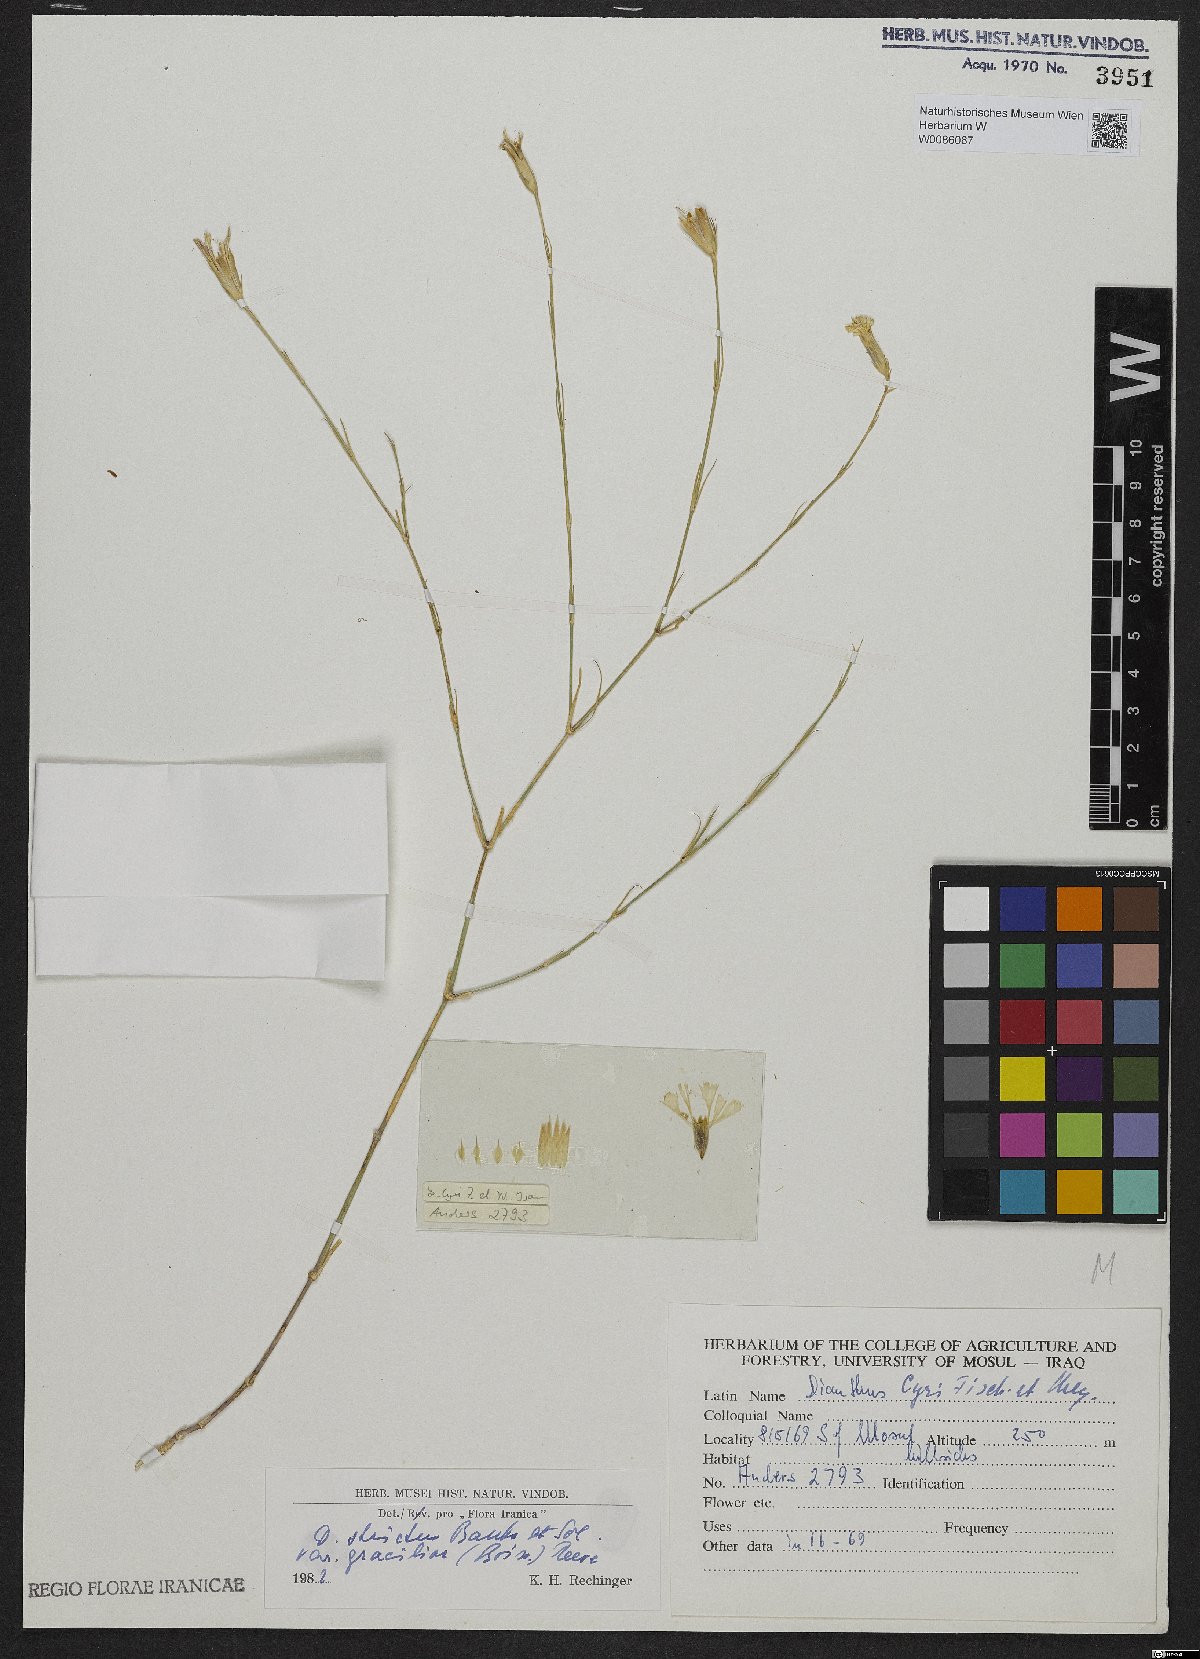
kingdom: Plantae
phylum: Tracheophyta
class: Magnoliopsida
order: Caryophyllales
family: Caryophyllaceae
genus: Dianthus
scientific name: Dianthus strictus
